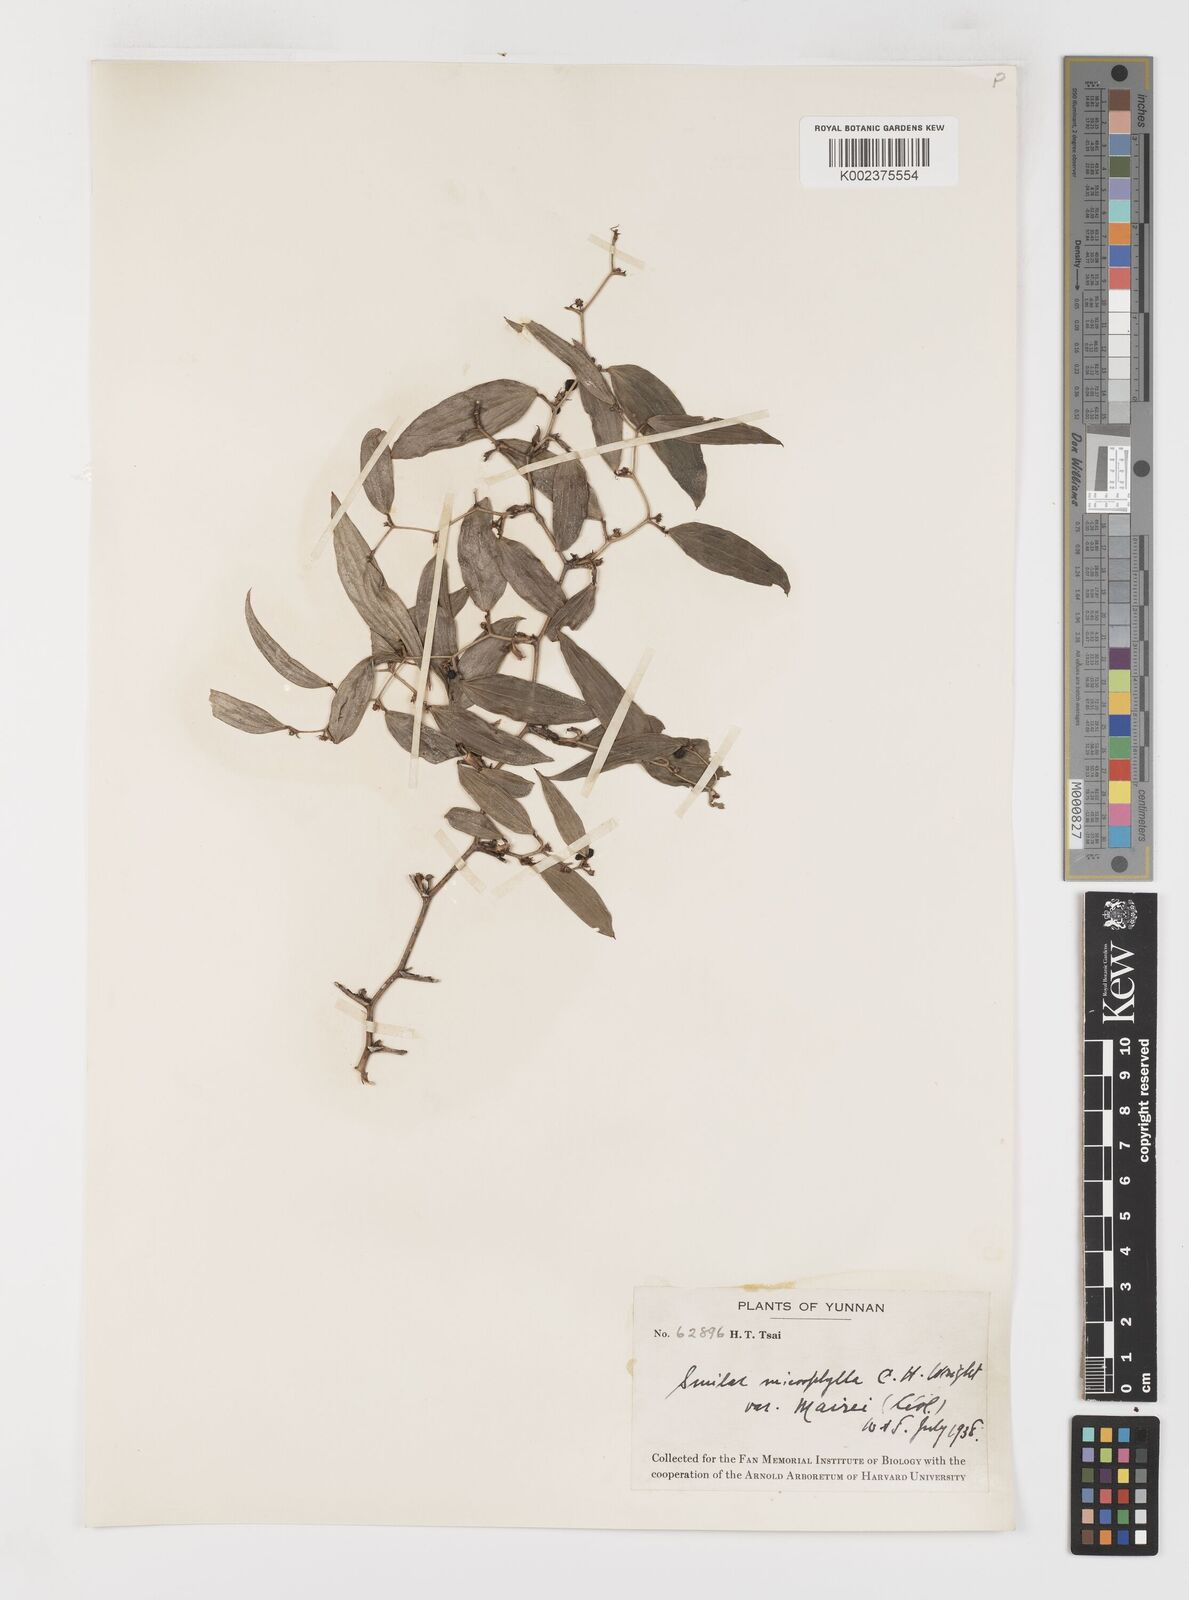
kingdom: Plantae
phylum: Tracheophyta
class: Liliopsida
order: Liliales
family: Smilacaceae
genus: Smilax
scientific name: Smilax lanceifolia
